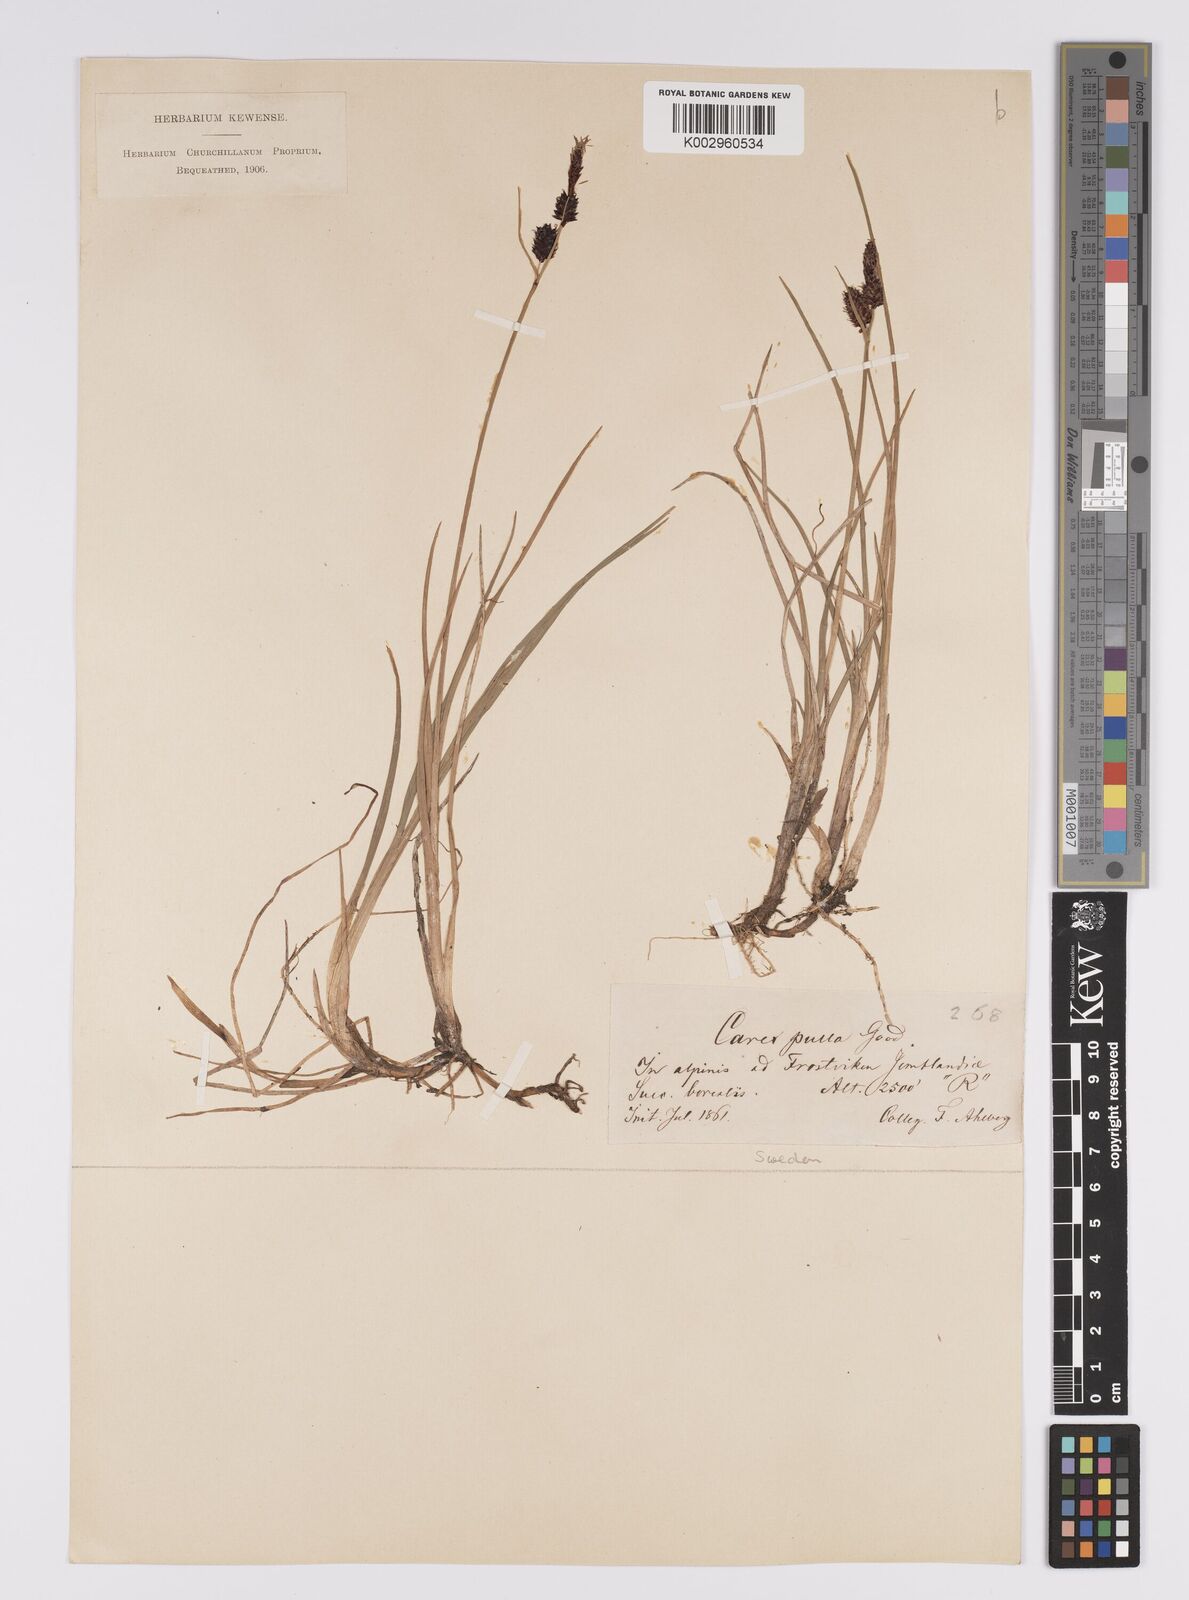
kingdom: Plantae
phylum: Tracheophyta
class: Liliopsida
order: Poales
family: Cyperaceae
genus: Carex
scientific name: Carex saxatilis
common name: Russet sedge
